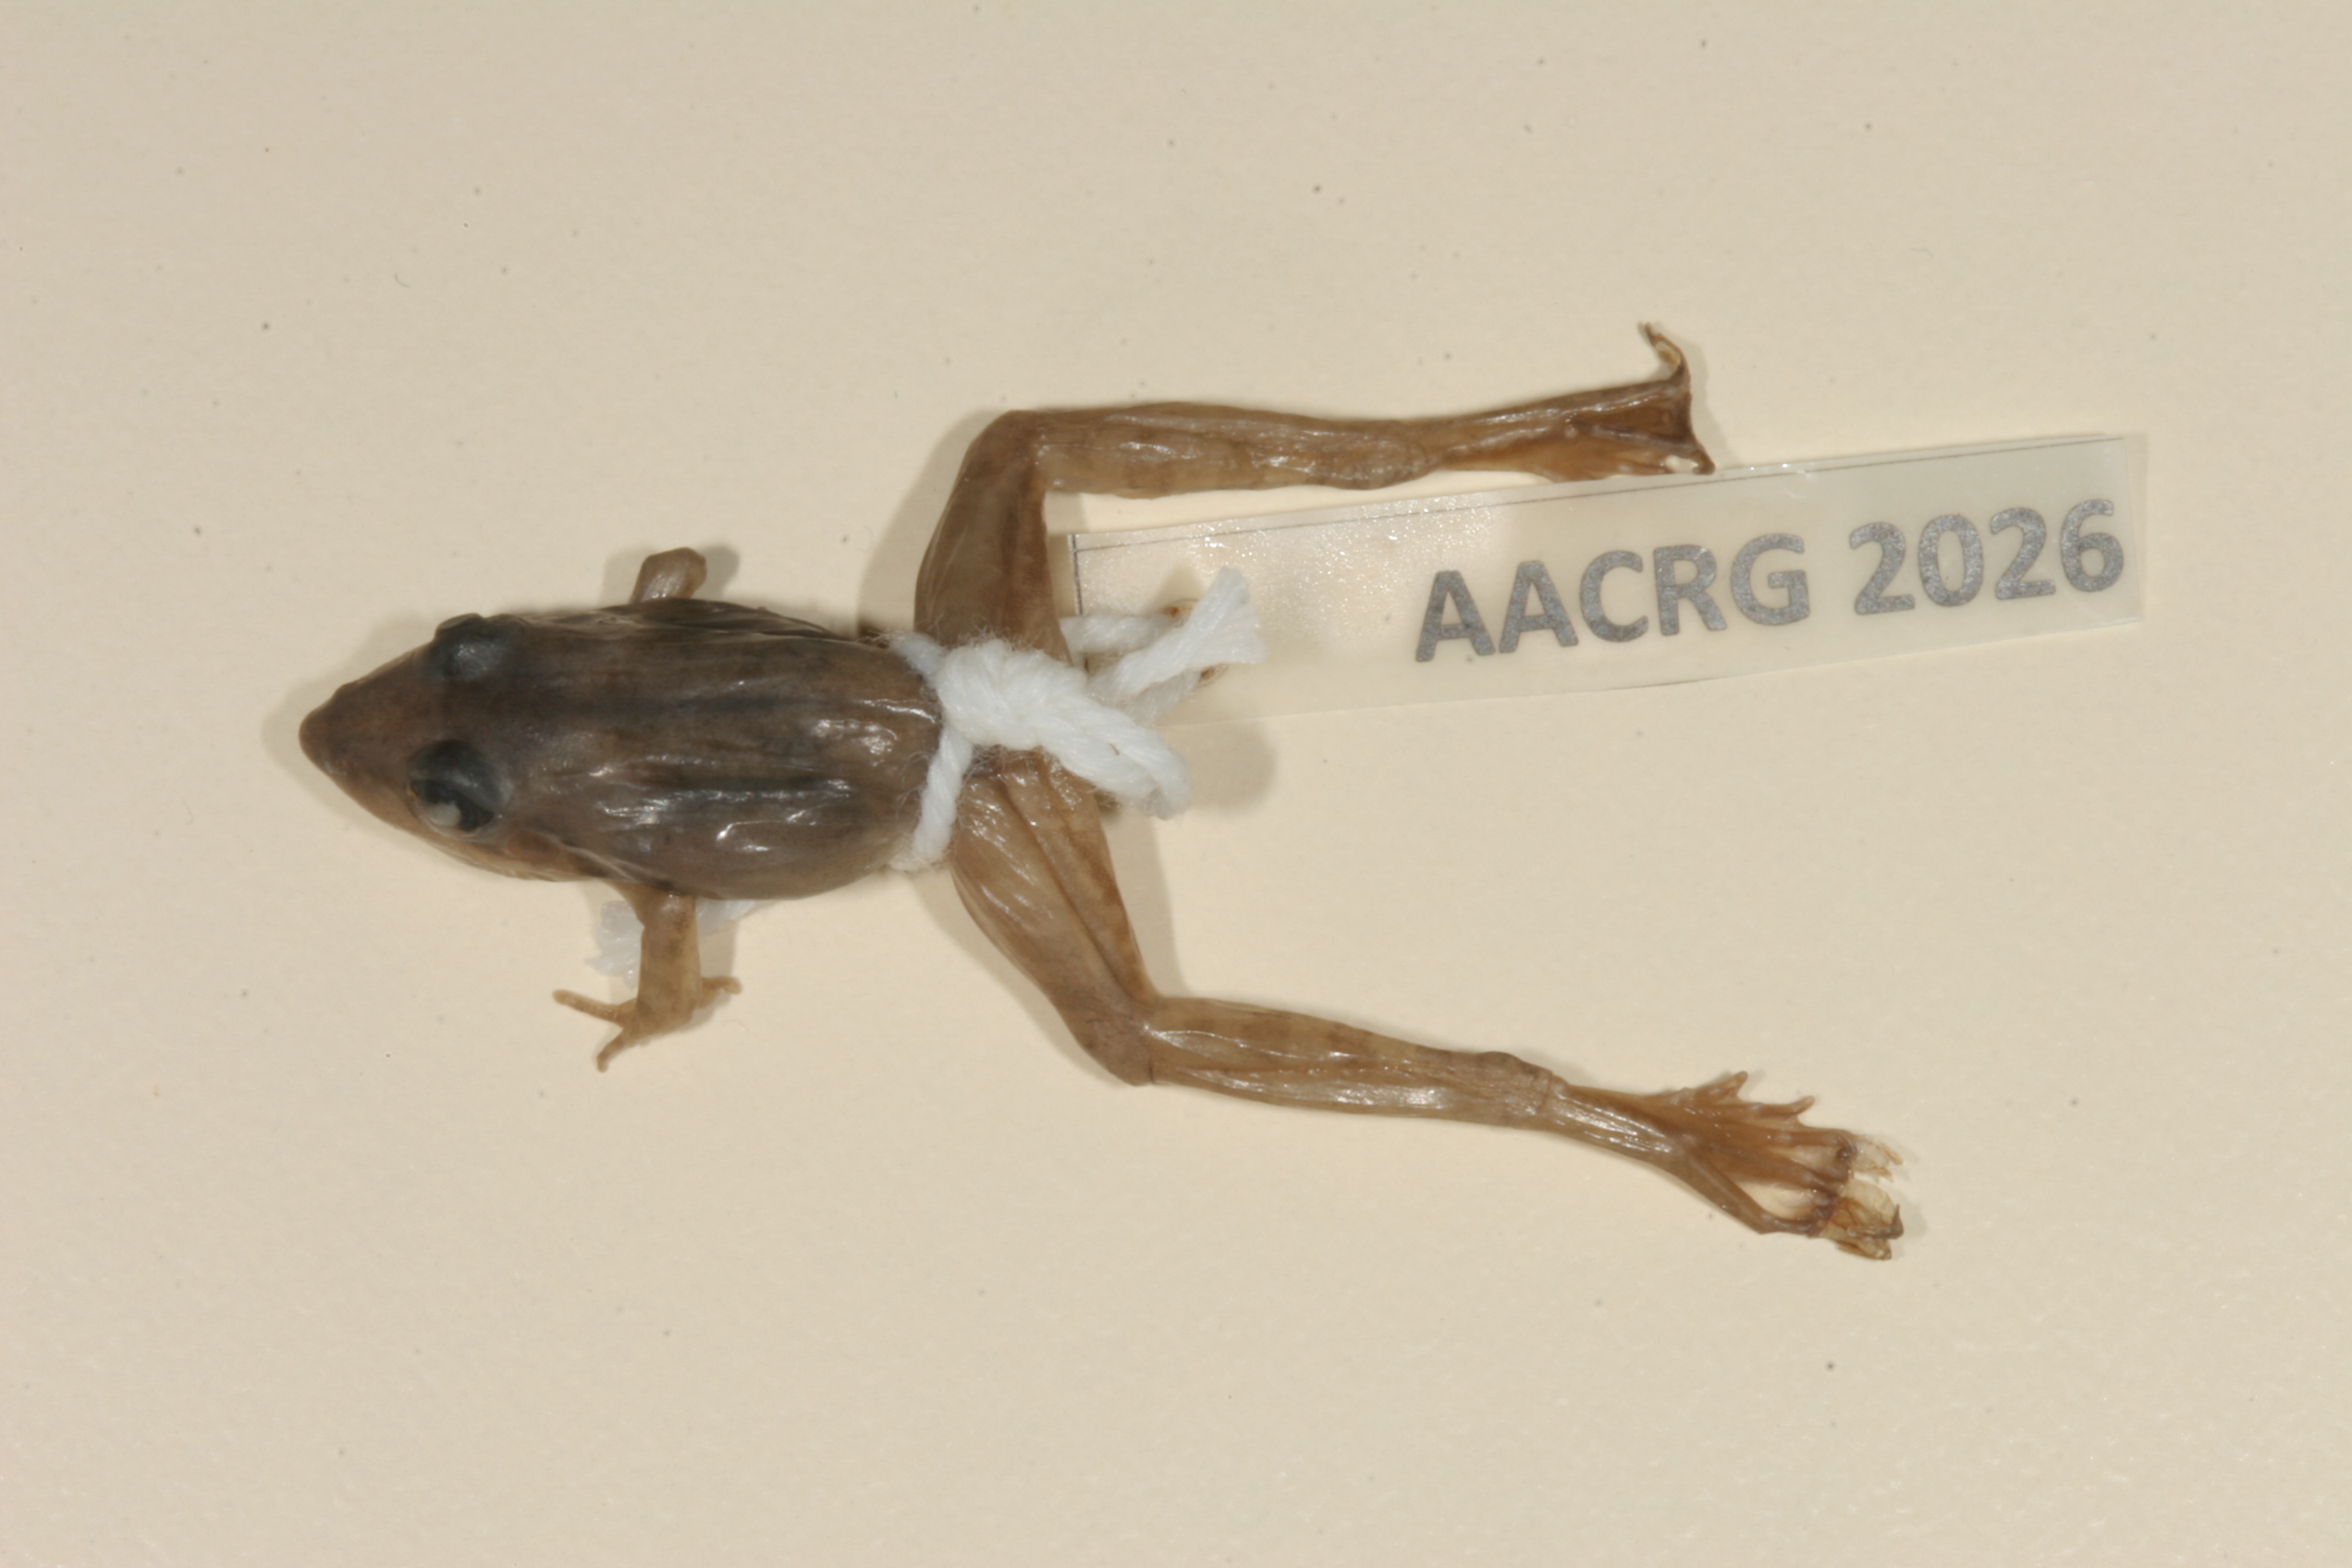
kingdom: Animalia
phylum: Chordata
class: Amphibia
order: Anura
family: Ptychadenidae
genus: Ptychadena
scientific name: Ptychadena anchietae
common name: Anchieta's ridged frog
